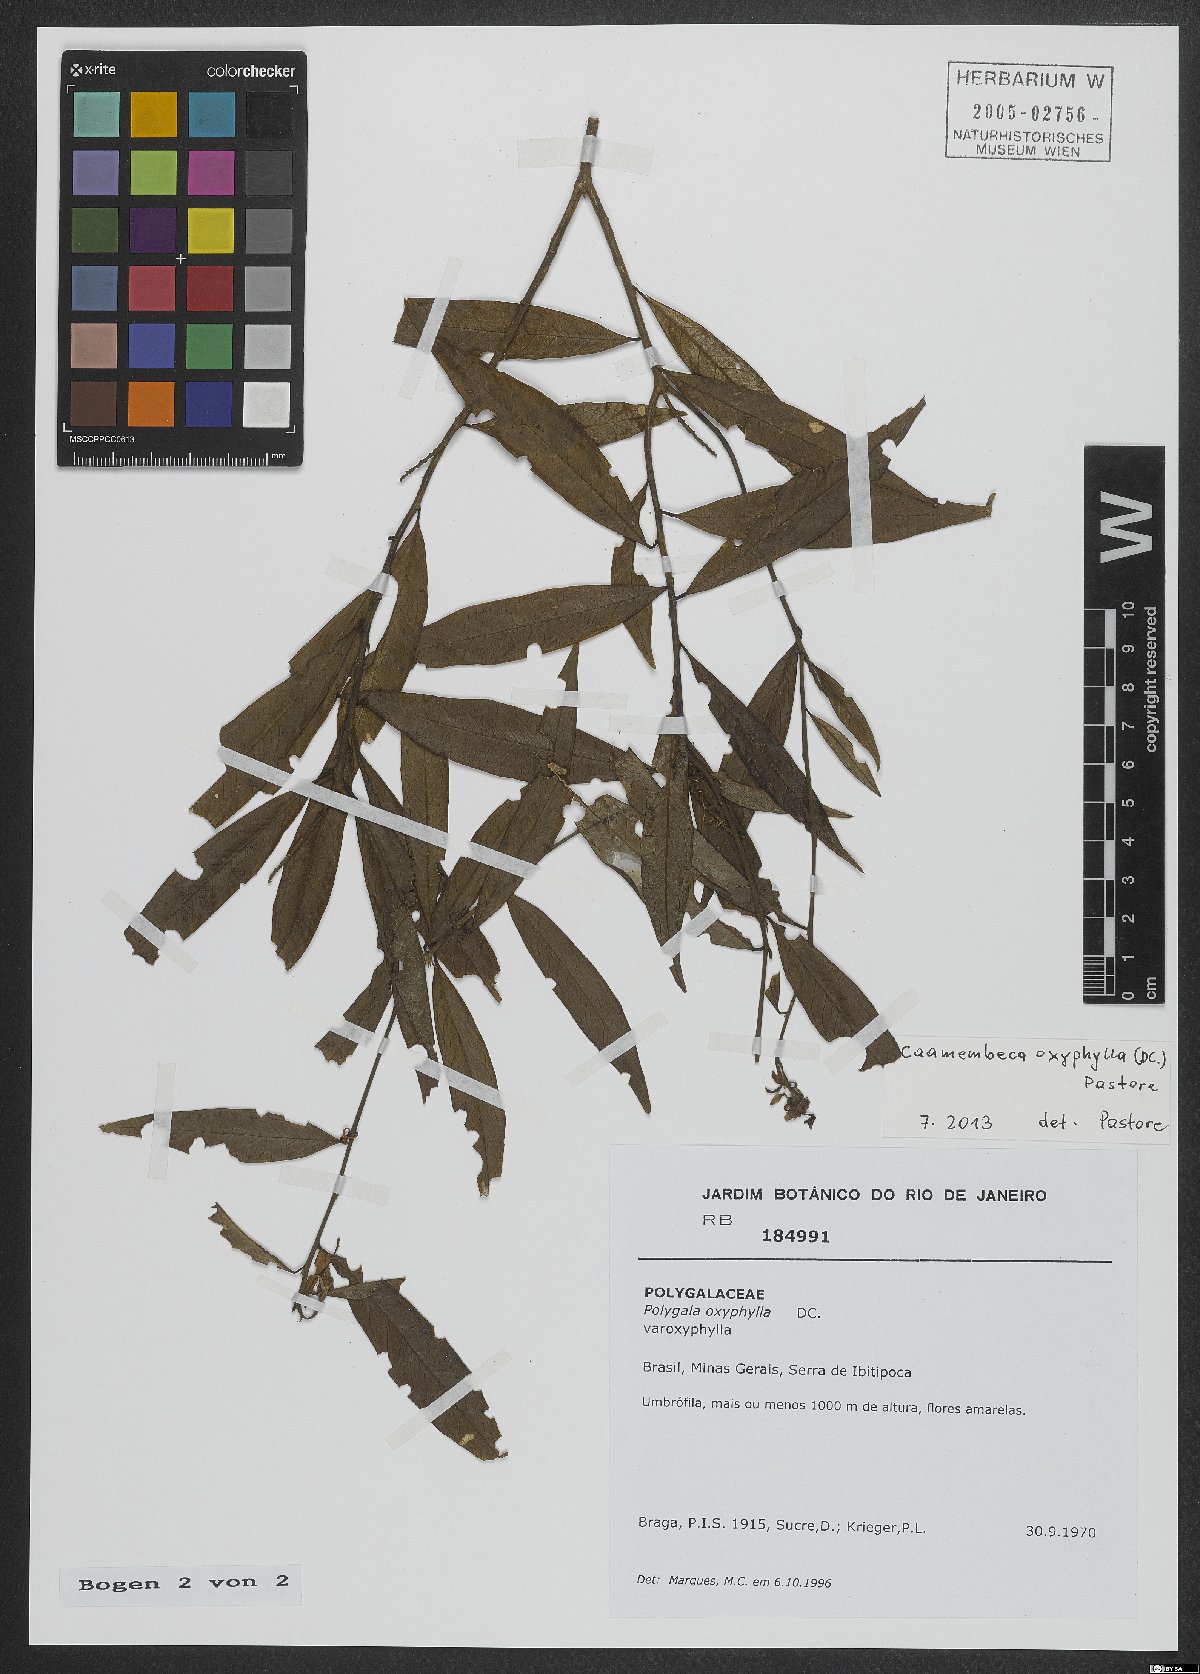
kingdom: Plantae
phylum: Tracheophyta
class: Magnoliopsida
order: Fabales
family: Polygalaceae
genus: Caamembeca
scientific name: Caamembeca oxyphylla
